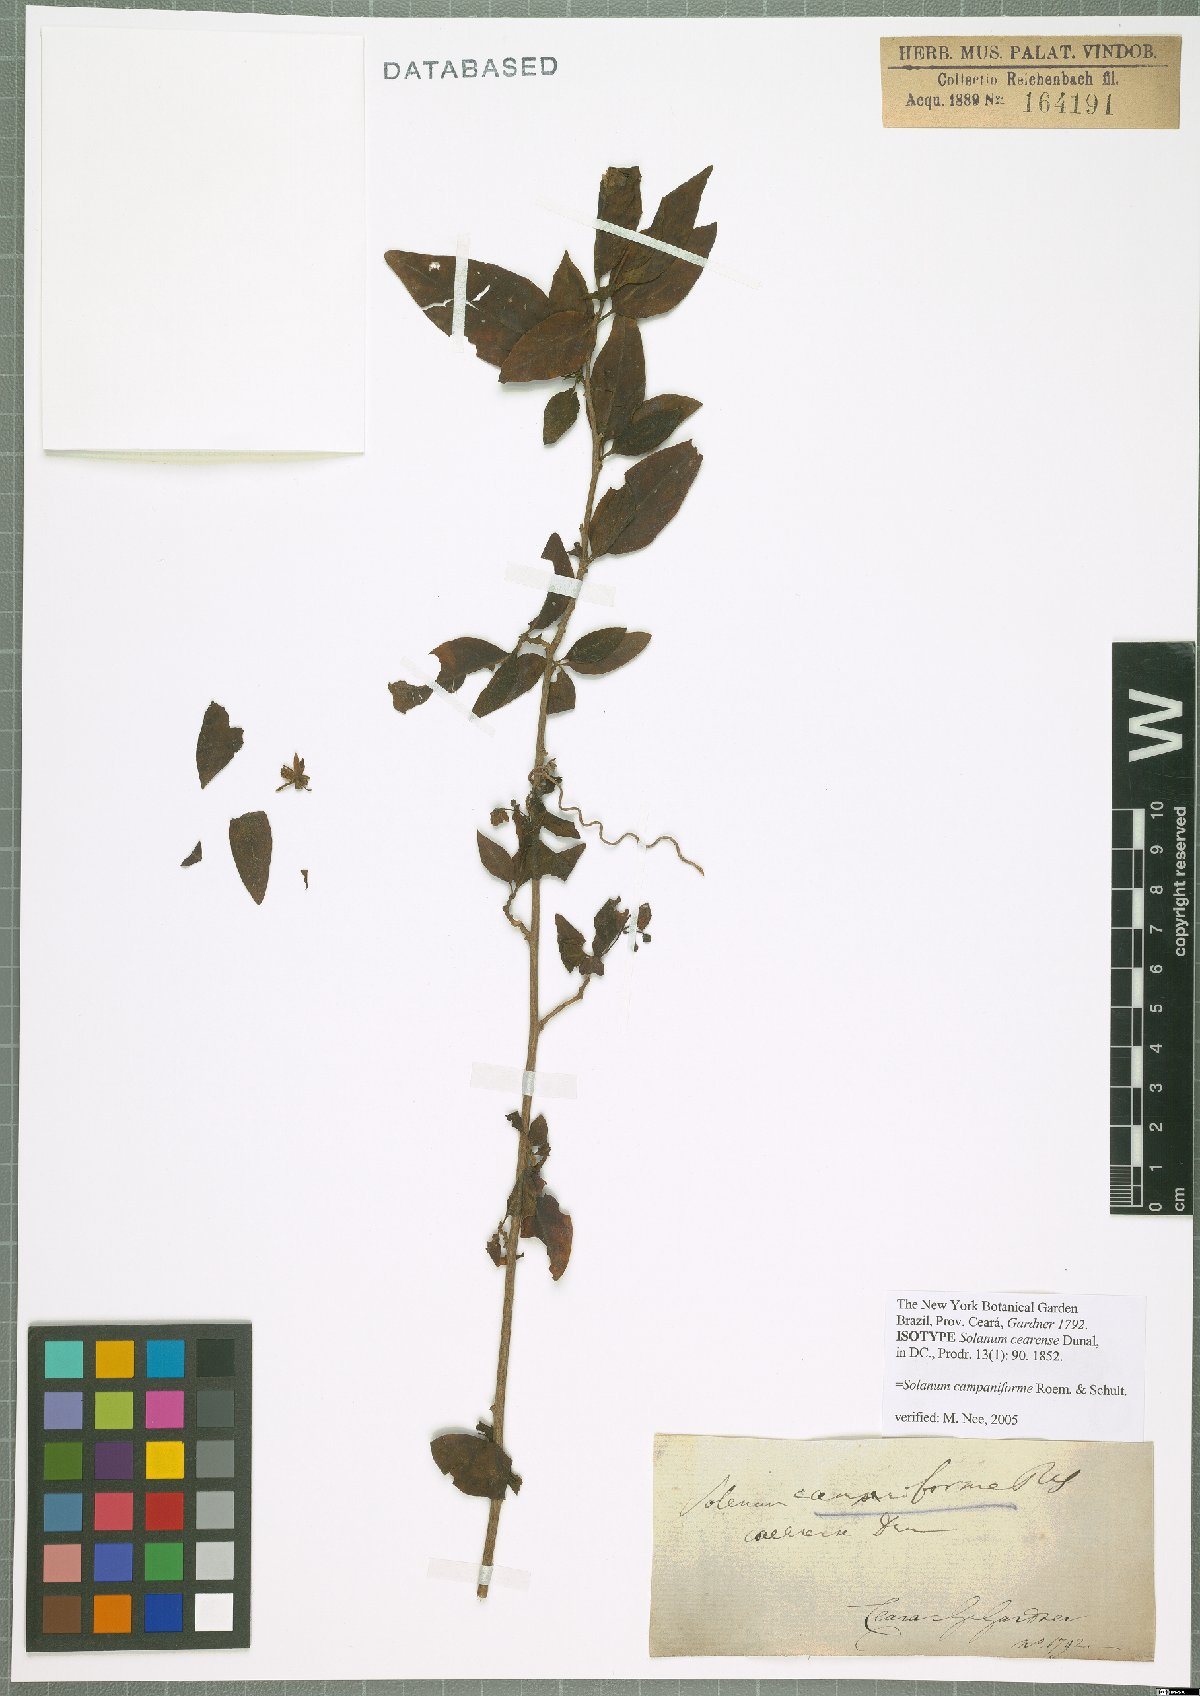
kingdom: Plantae
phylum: Tracheophyta
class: Magnoliopsida
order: Solanales
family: Solanaceae
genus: Solanum
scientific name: Solanum campaniforme
